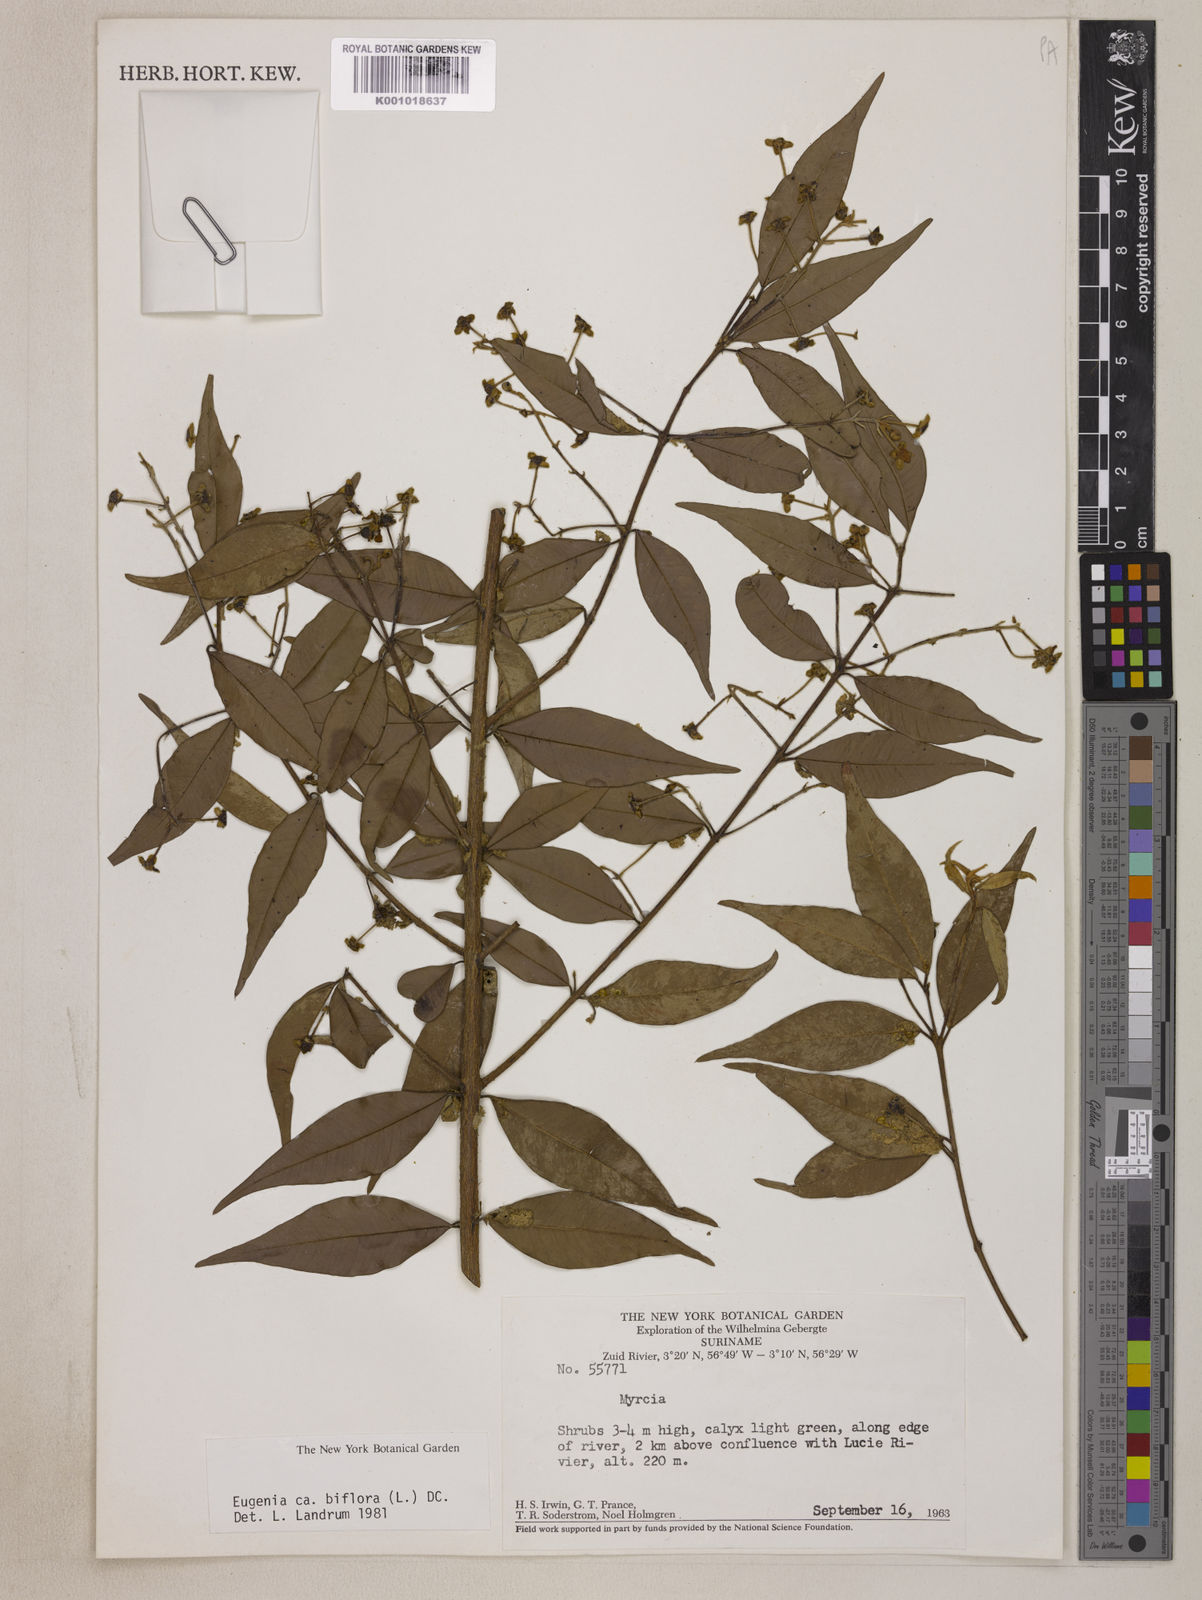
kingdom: Plantae
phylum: Tracheophyta
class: Magnoliopsida
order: Myrtales
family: Myrtaceae
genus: Eugenia
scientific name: Eugenia biflora
